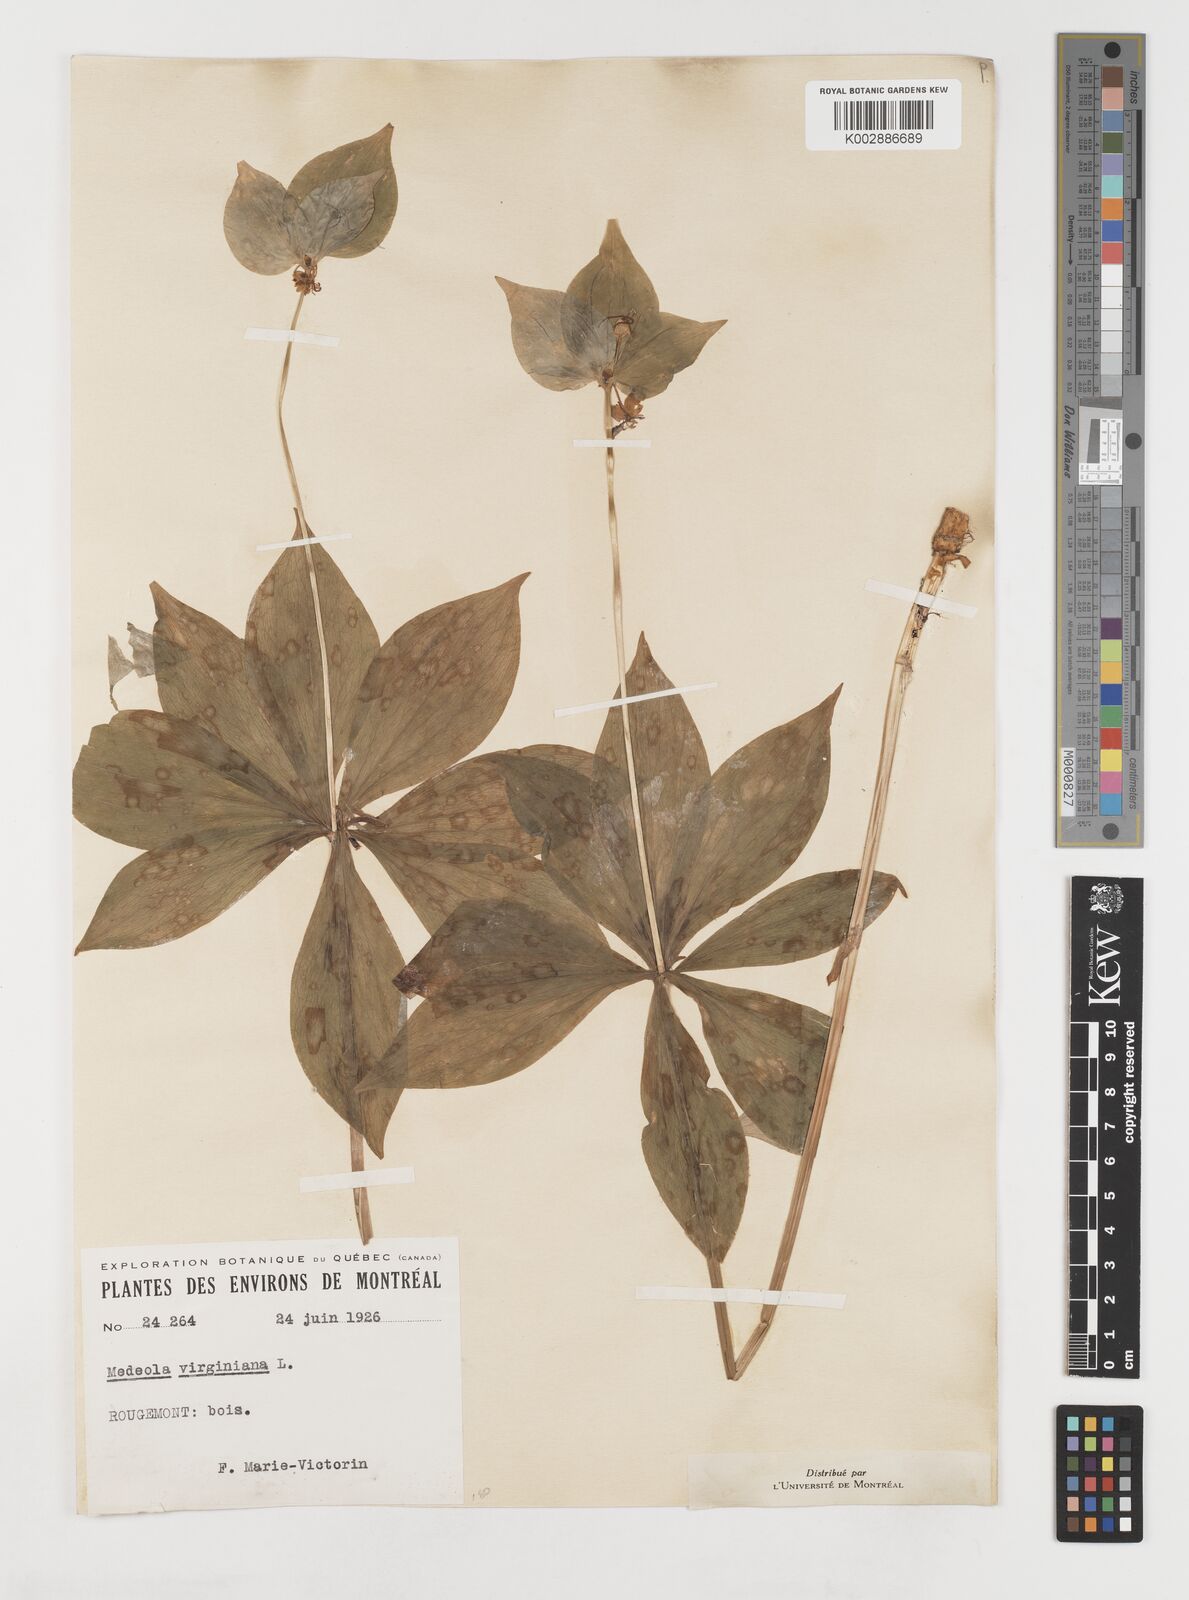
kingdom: Plantae
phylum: Tracheophyta
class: Liliopsida
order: Liliales
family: Liliaceae
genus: Medeola
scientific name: Medeola virginiana
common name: Indian cucumber-root
